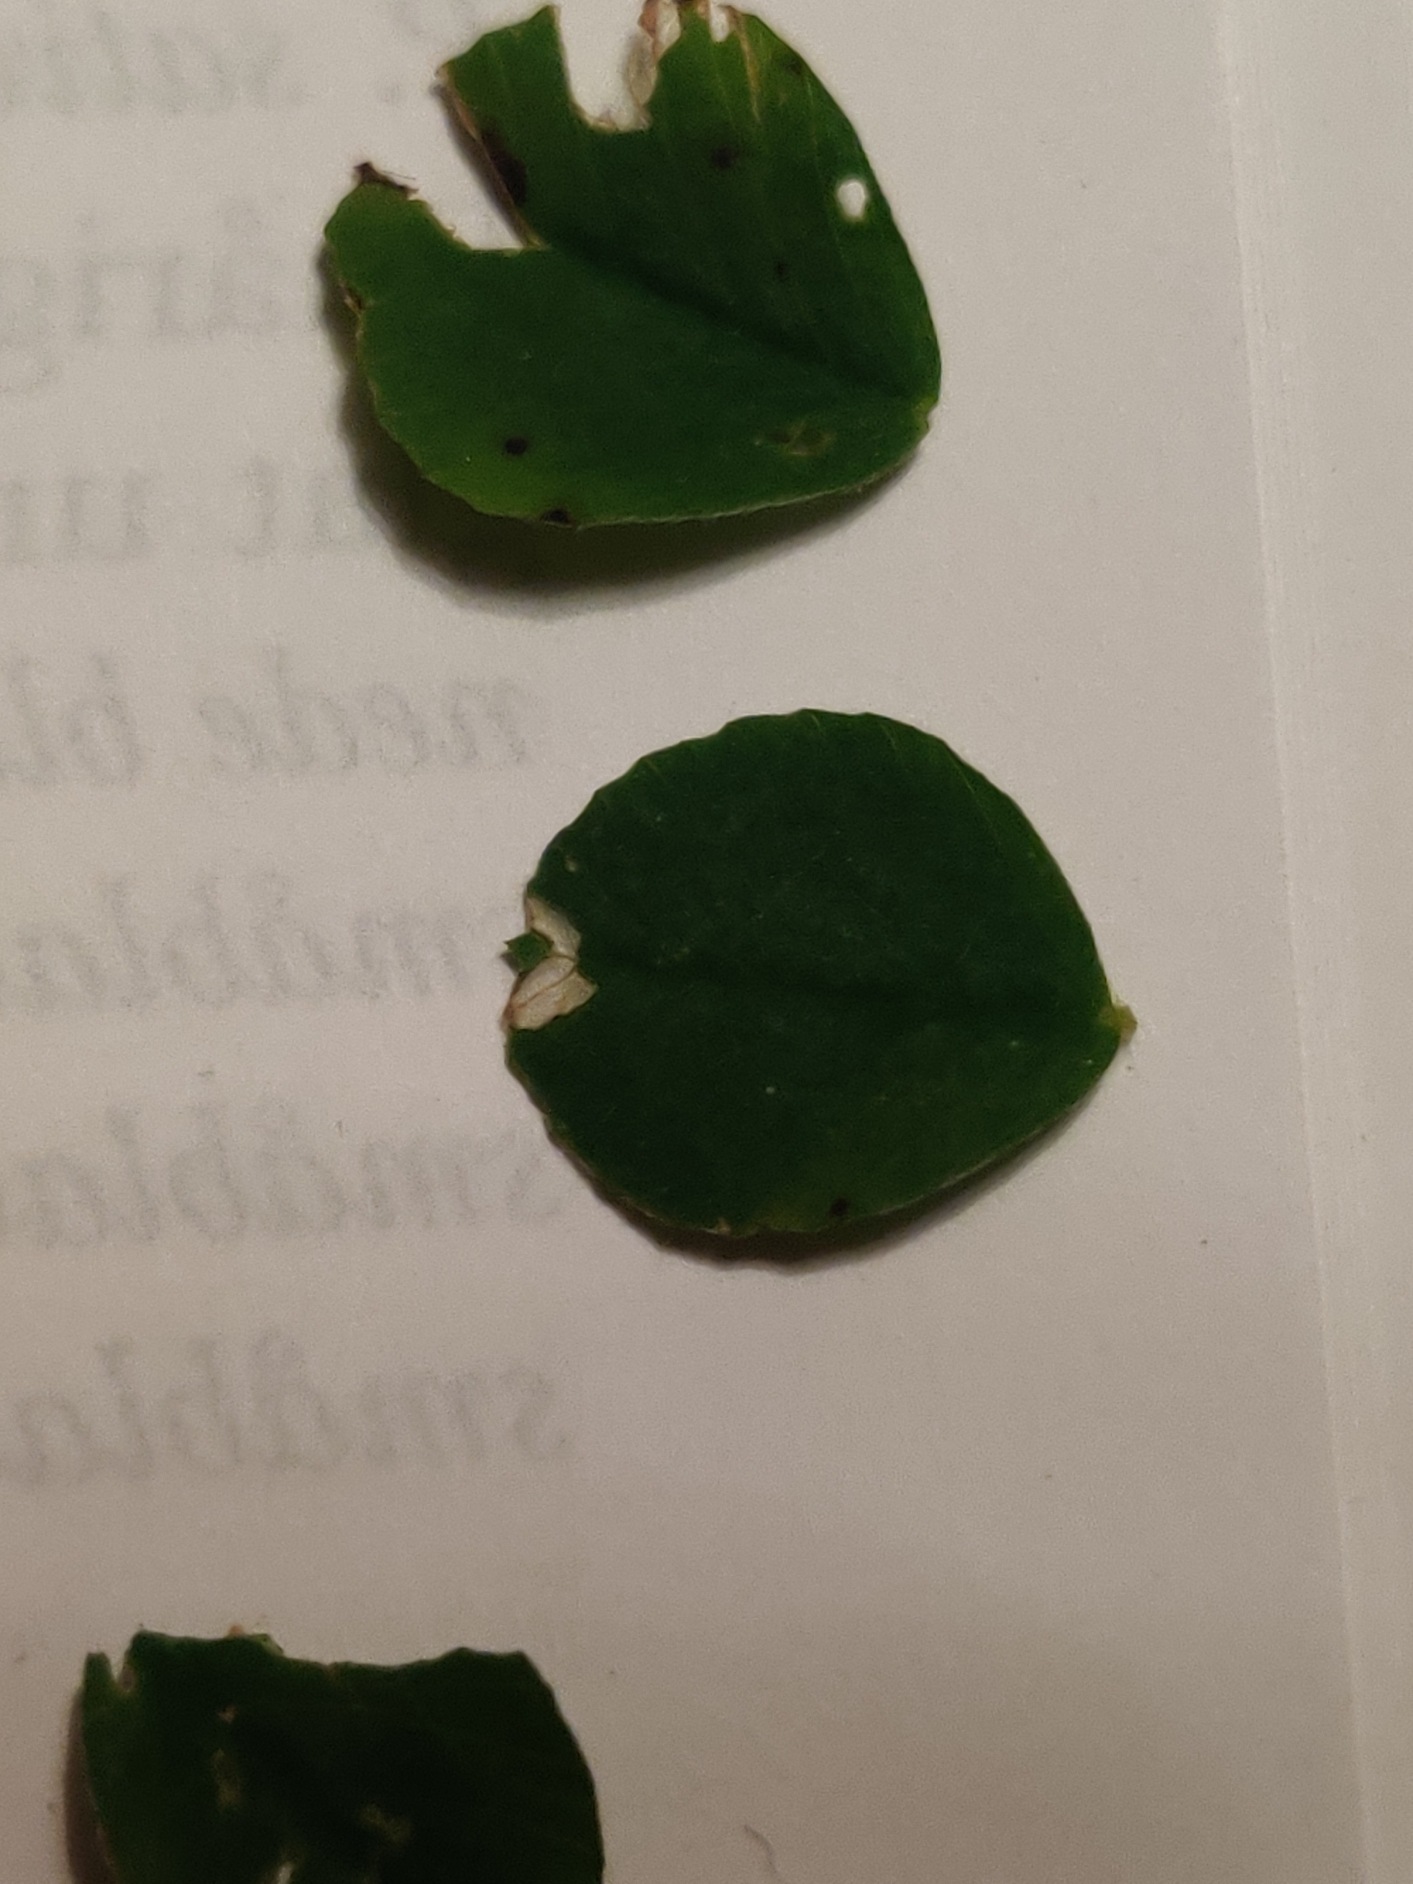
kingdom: Plantae
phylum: Tracheophyta
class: Magnoliopsida
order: Fabales
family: Fabaceae
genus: Medicago
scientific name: Medicago lupulina
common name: Humle-sneglebælg
